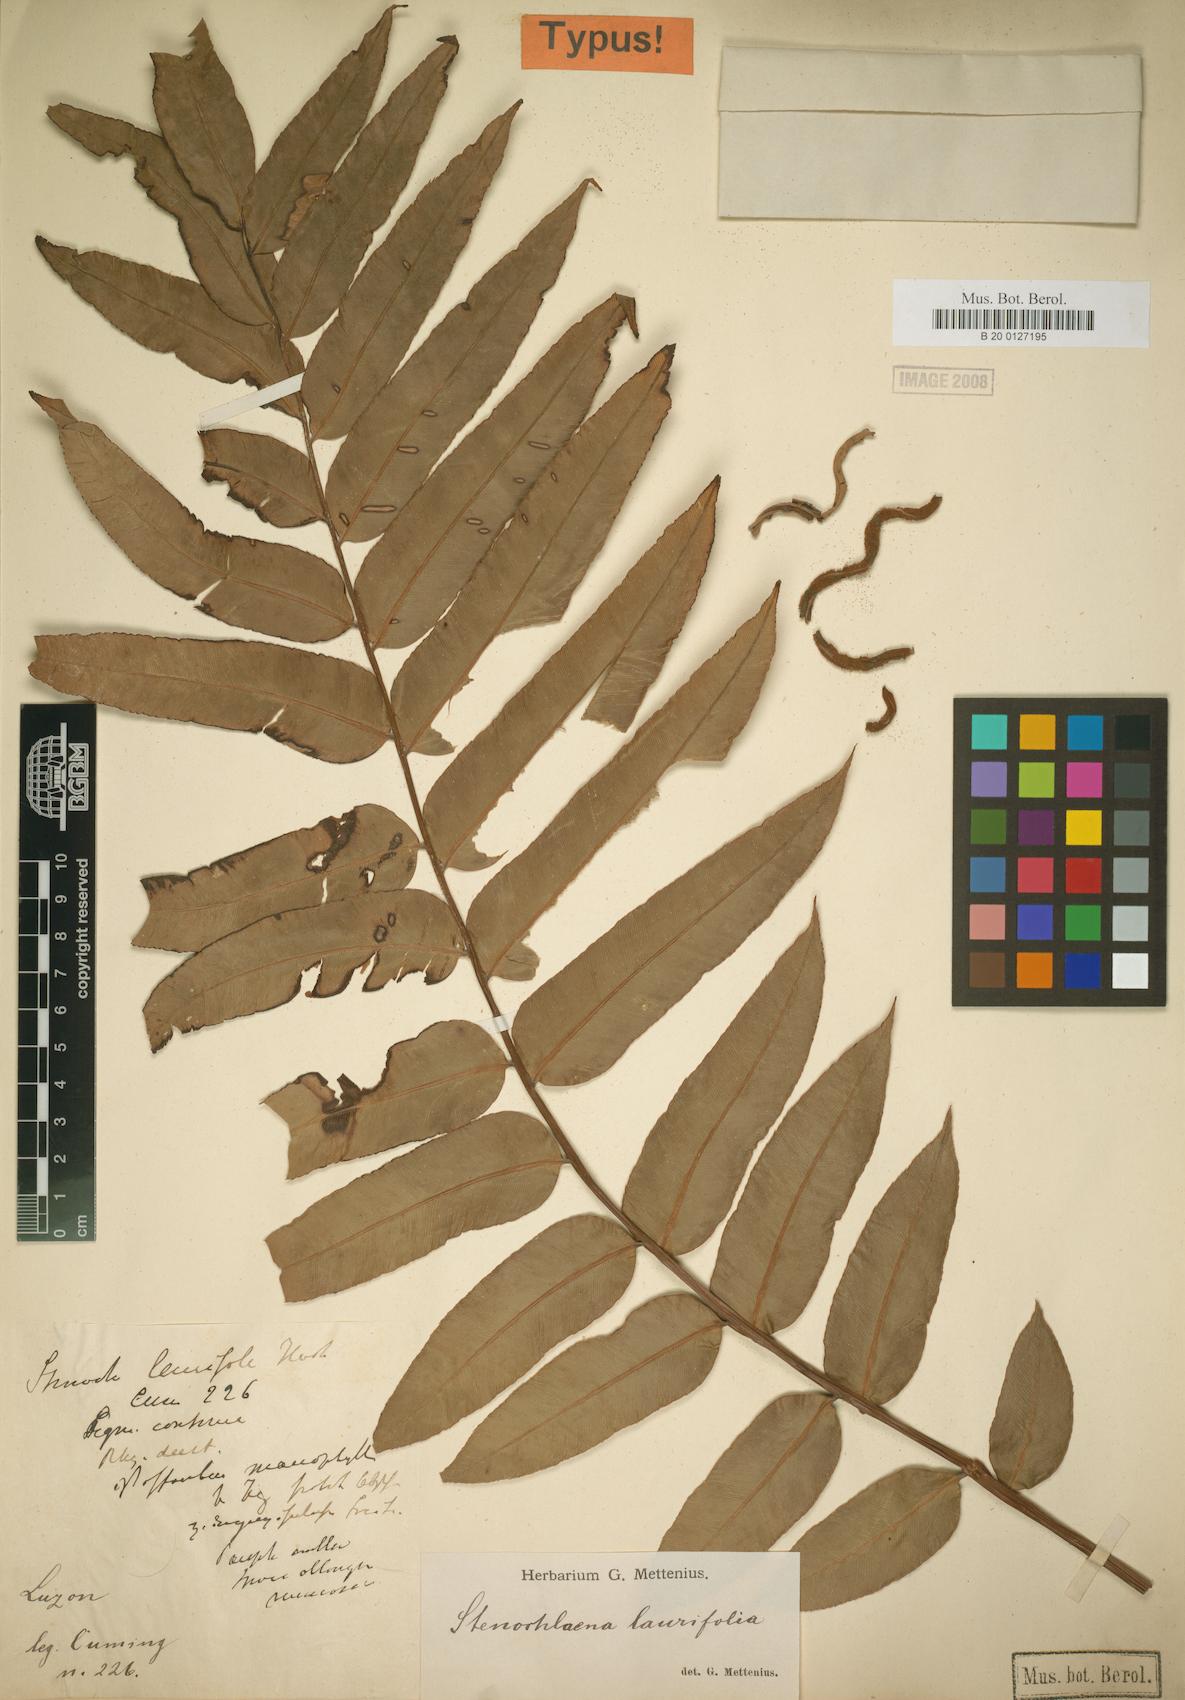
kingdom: Plantae
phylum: Tracheophyta
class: Polypodiopsida
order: Polypodiales
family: Blechnaceae
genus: Stenochlaena
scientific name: Stenochlaena palustris
